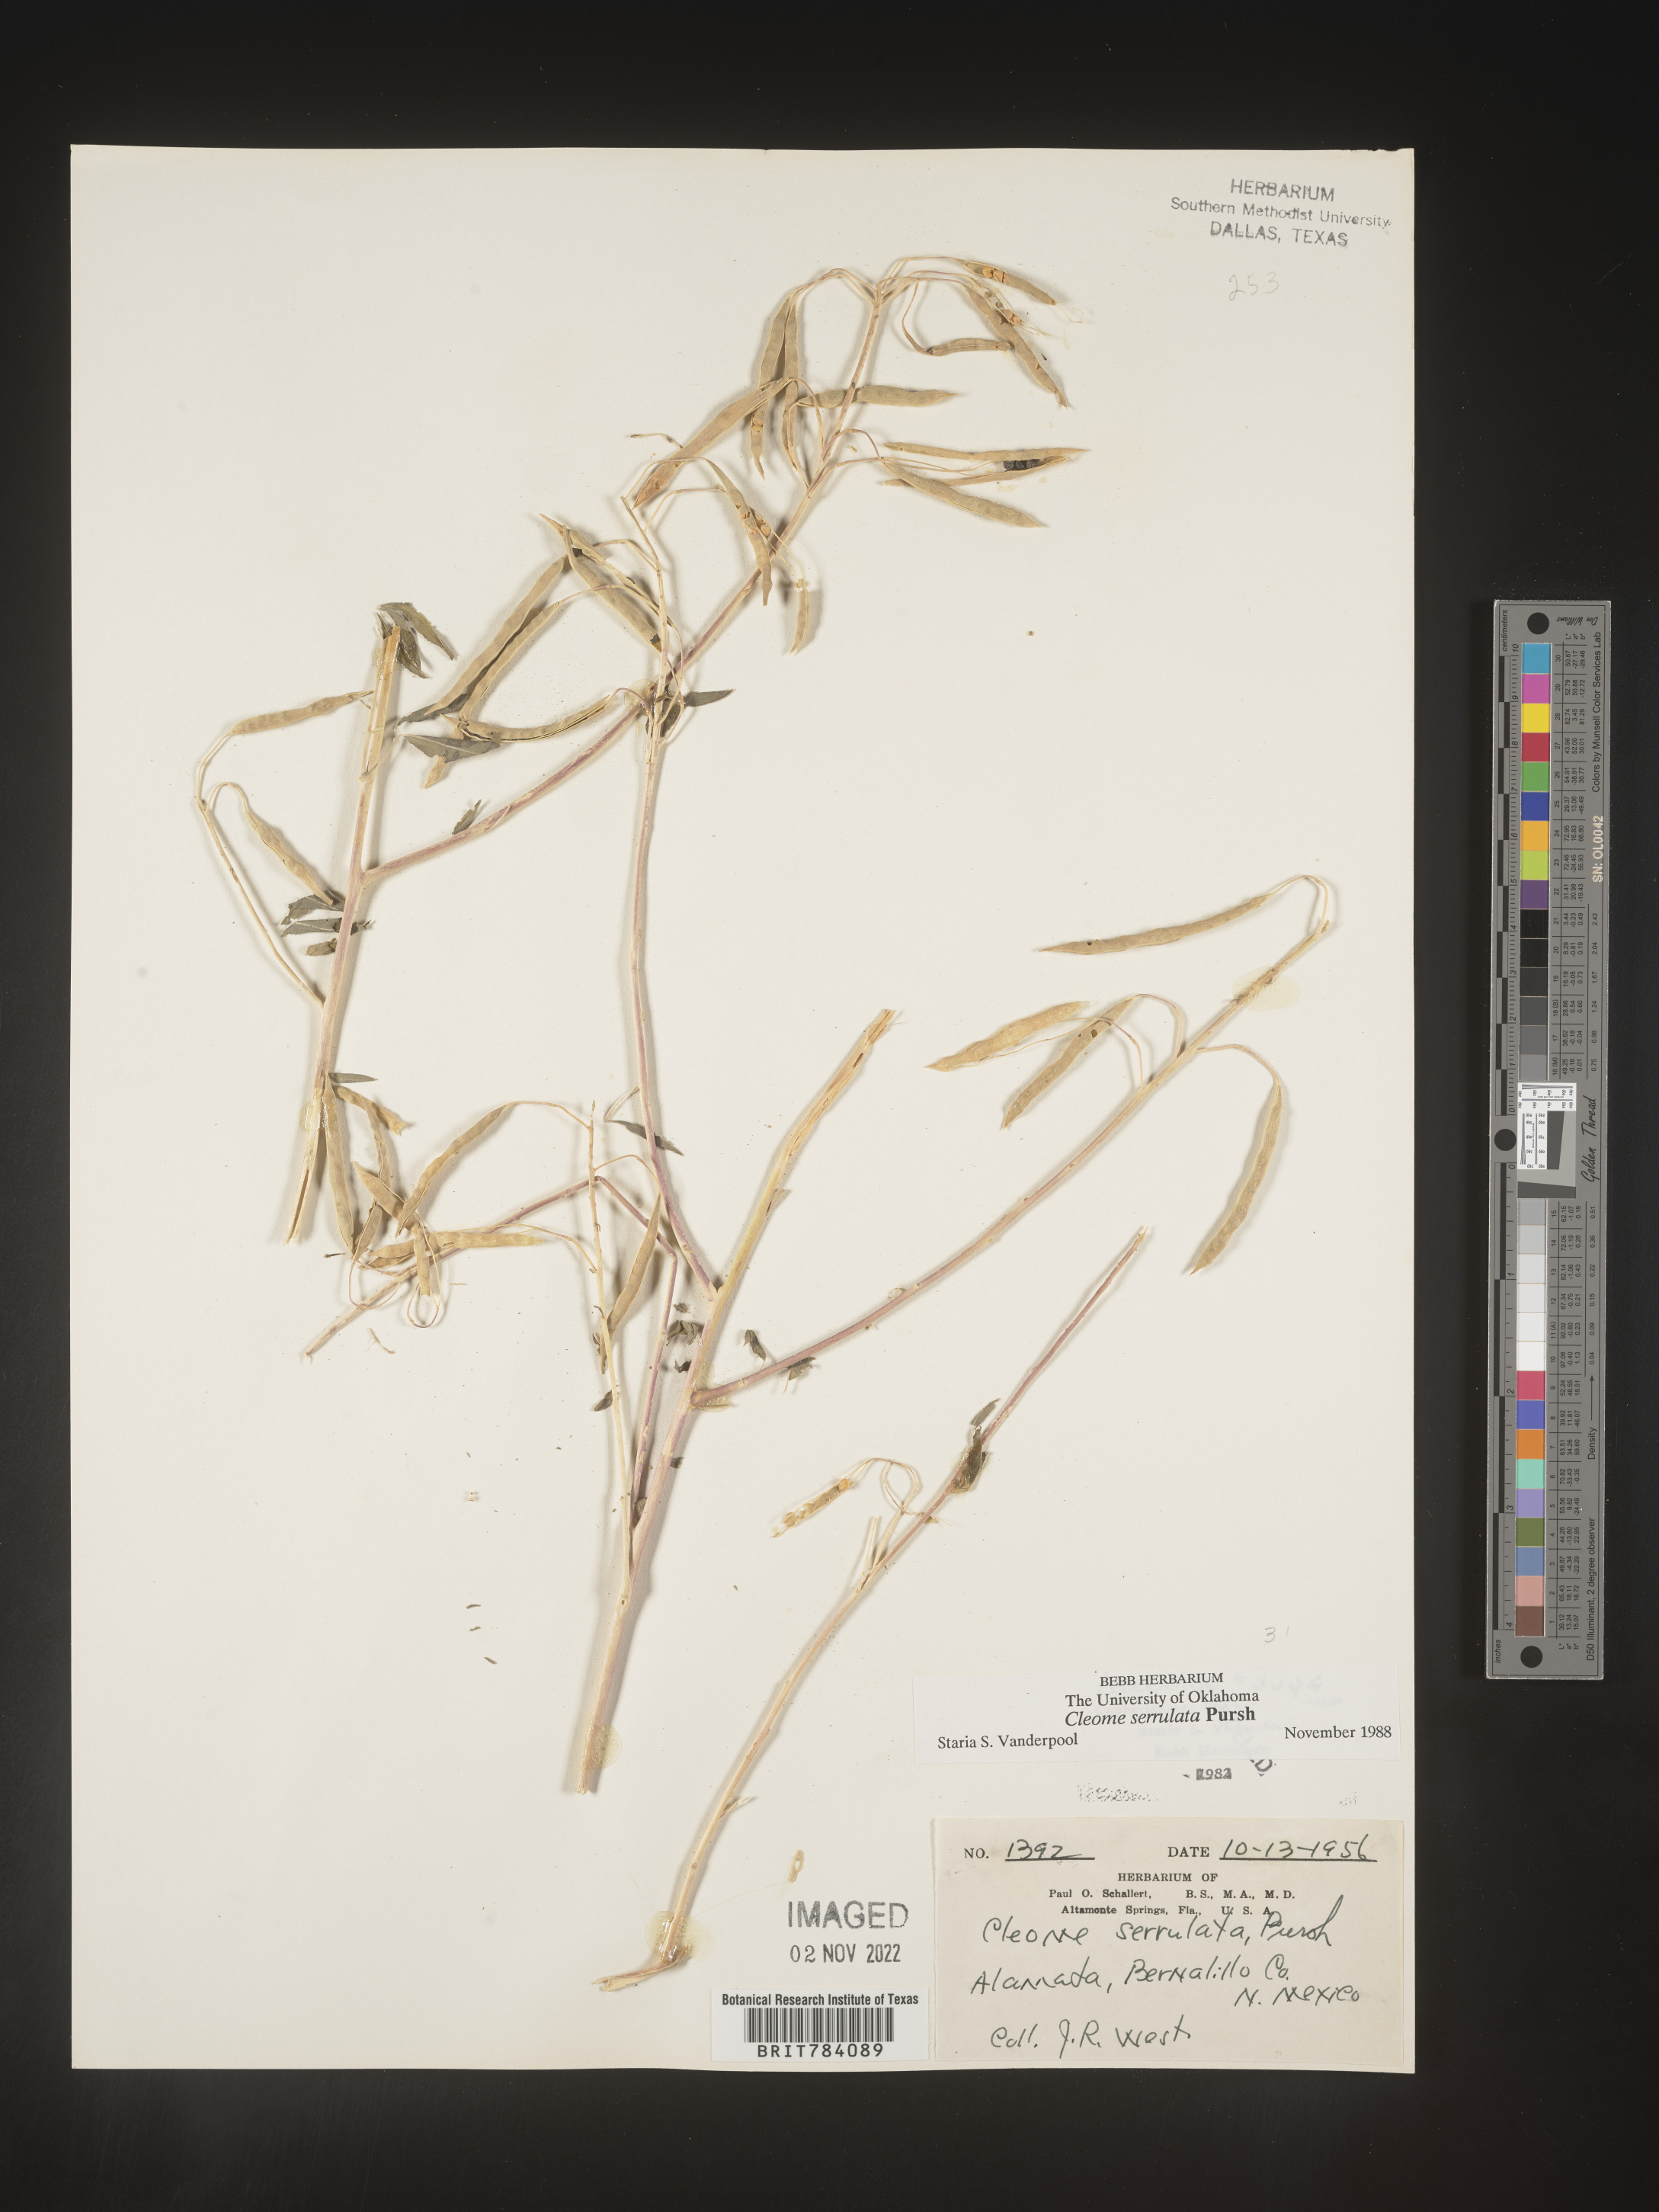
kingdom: Plantae
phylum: Tracheophyta
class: Magnoliopsida
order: Brassicales
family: Cleomaceae
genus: Cleomella
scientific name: Cleomella serrulata
